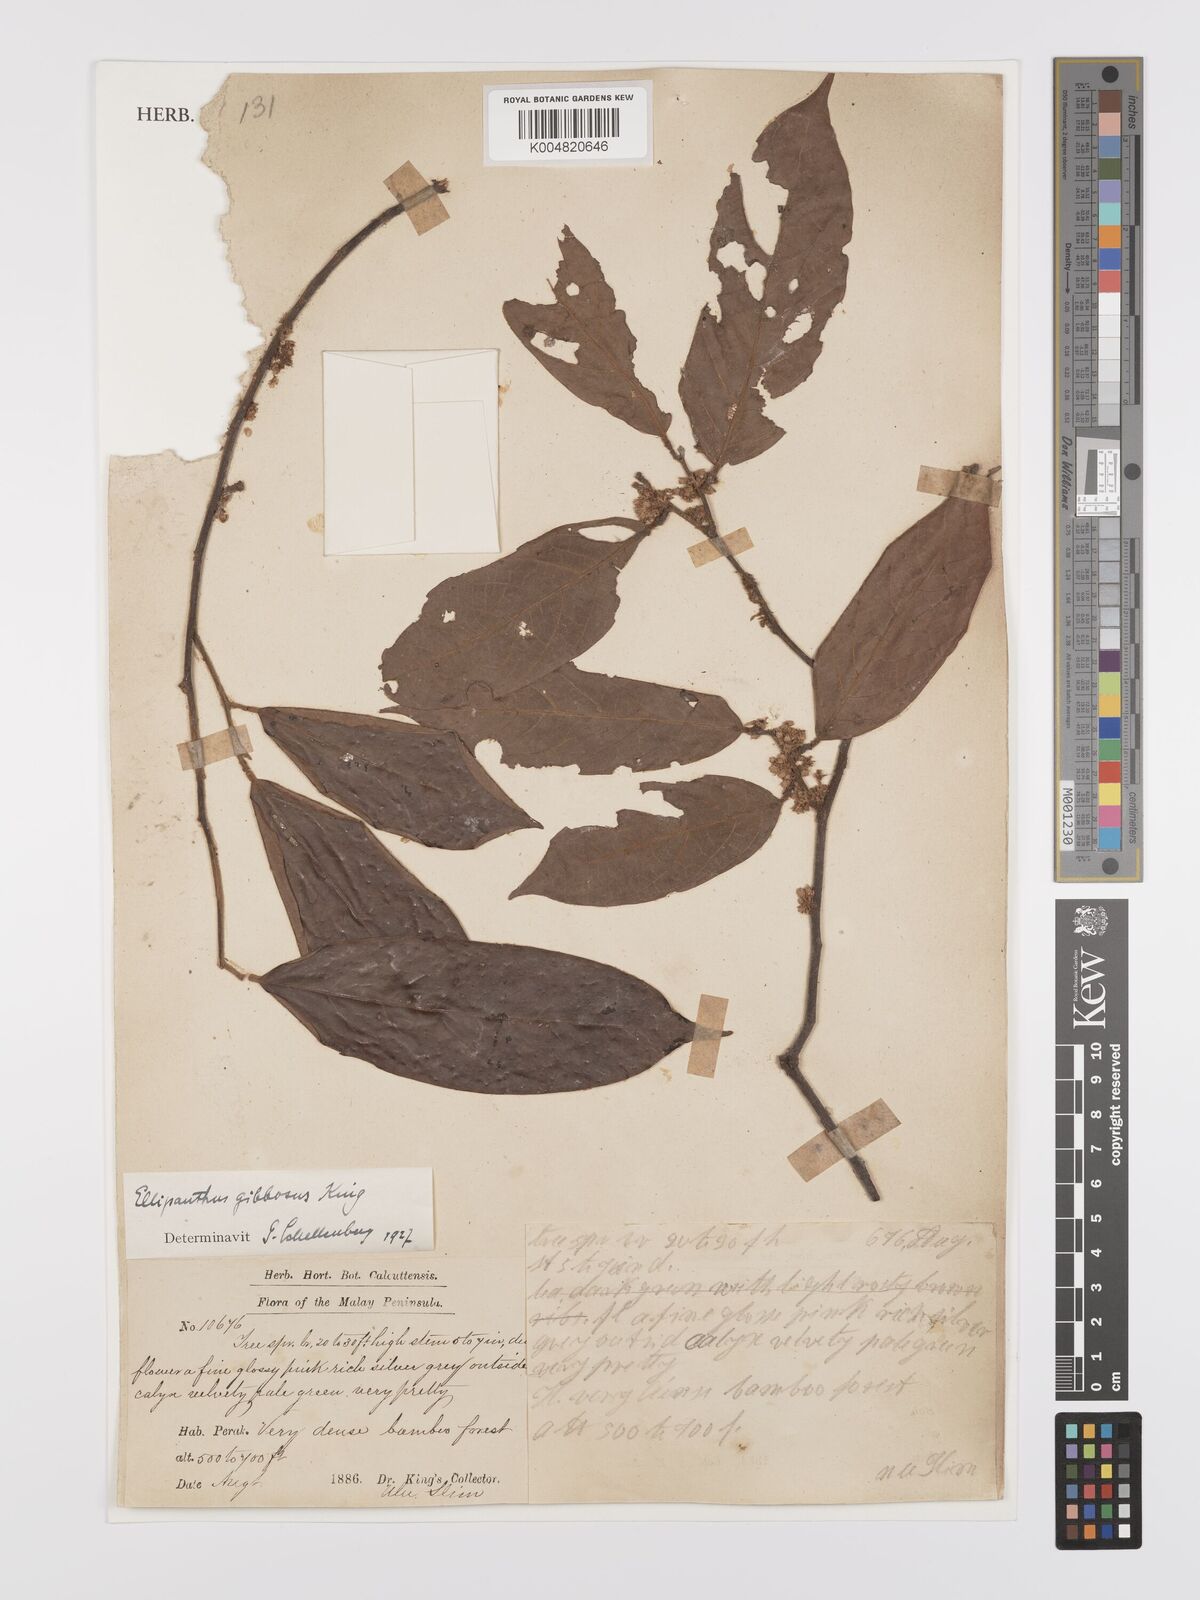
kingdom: Plantae
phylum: Tracheophyta
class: Magnoliopsida
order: Oxalidales
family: Connaraceae
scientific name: Connaraceae
